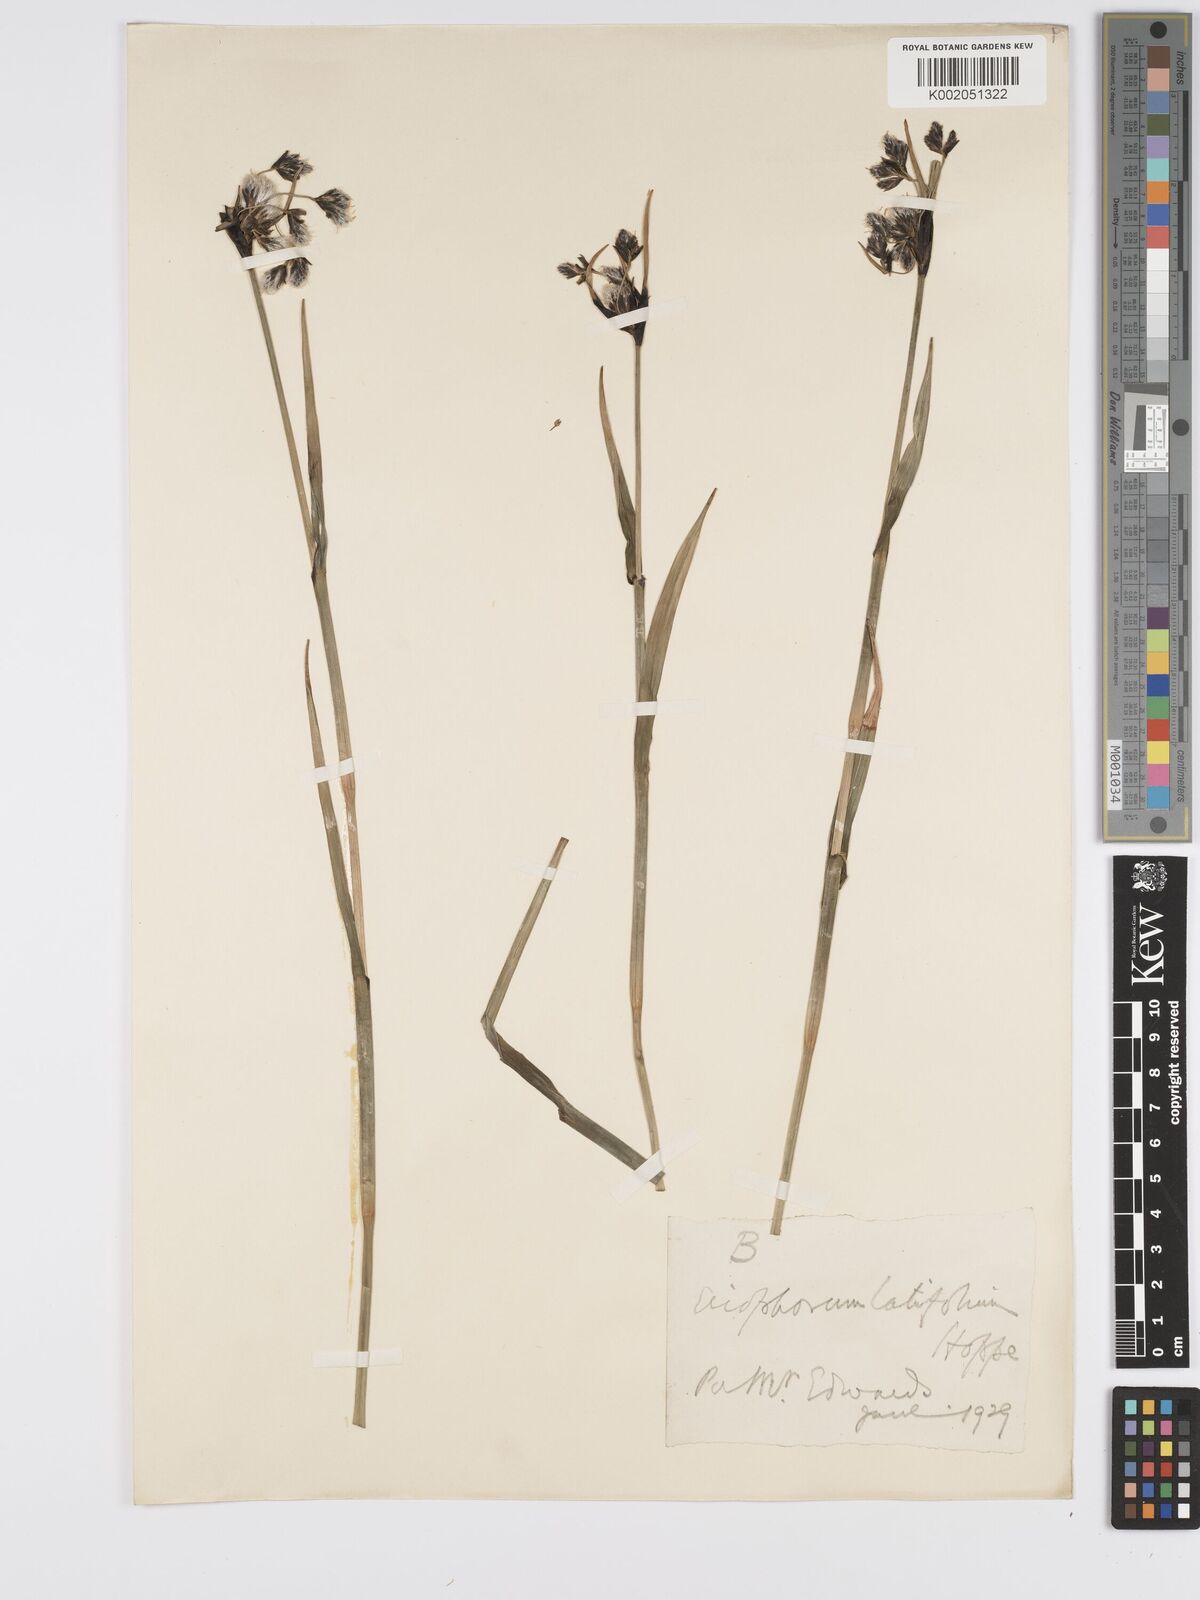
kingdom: Plantae
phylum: Tracheophyta
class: Liliopsida
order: Poales
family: Cyperaceae
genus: Eriophorum
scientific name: Eriophorum latifolium
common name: Broad-leaved cottongrass
